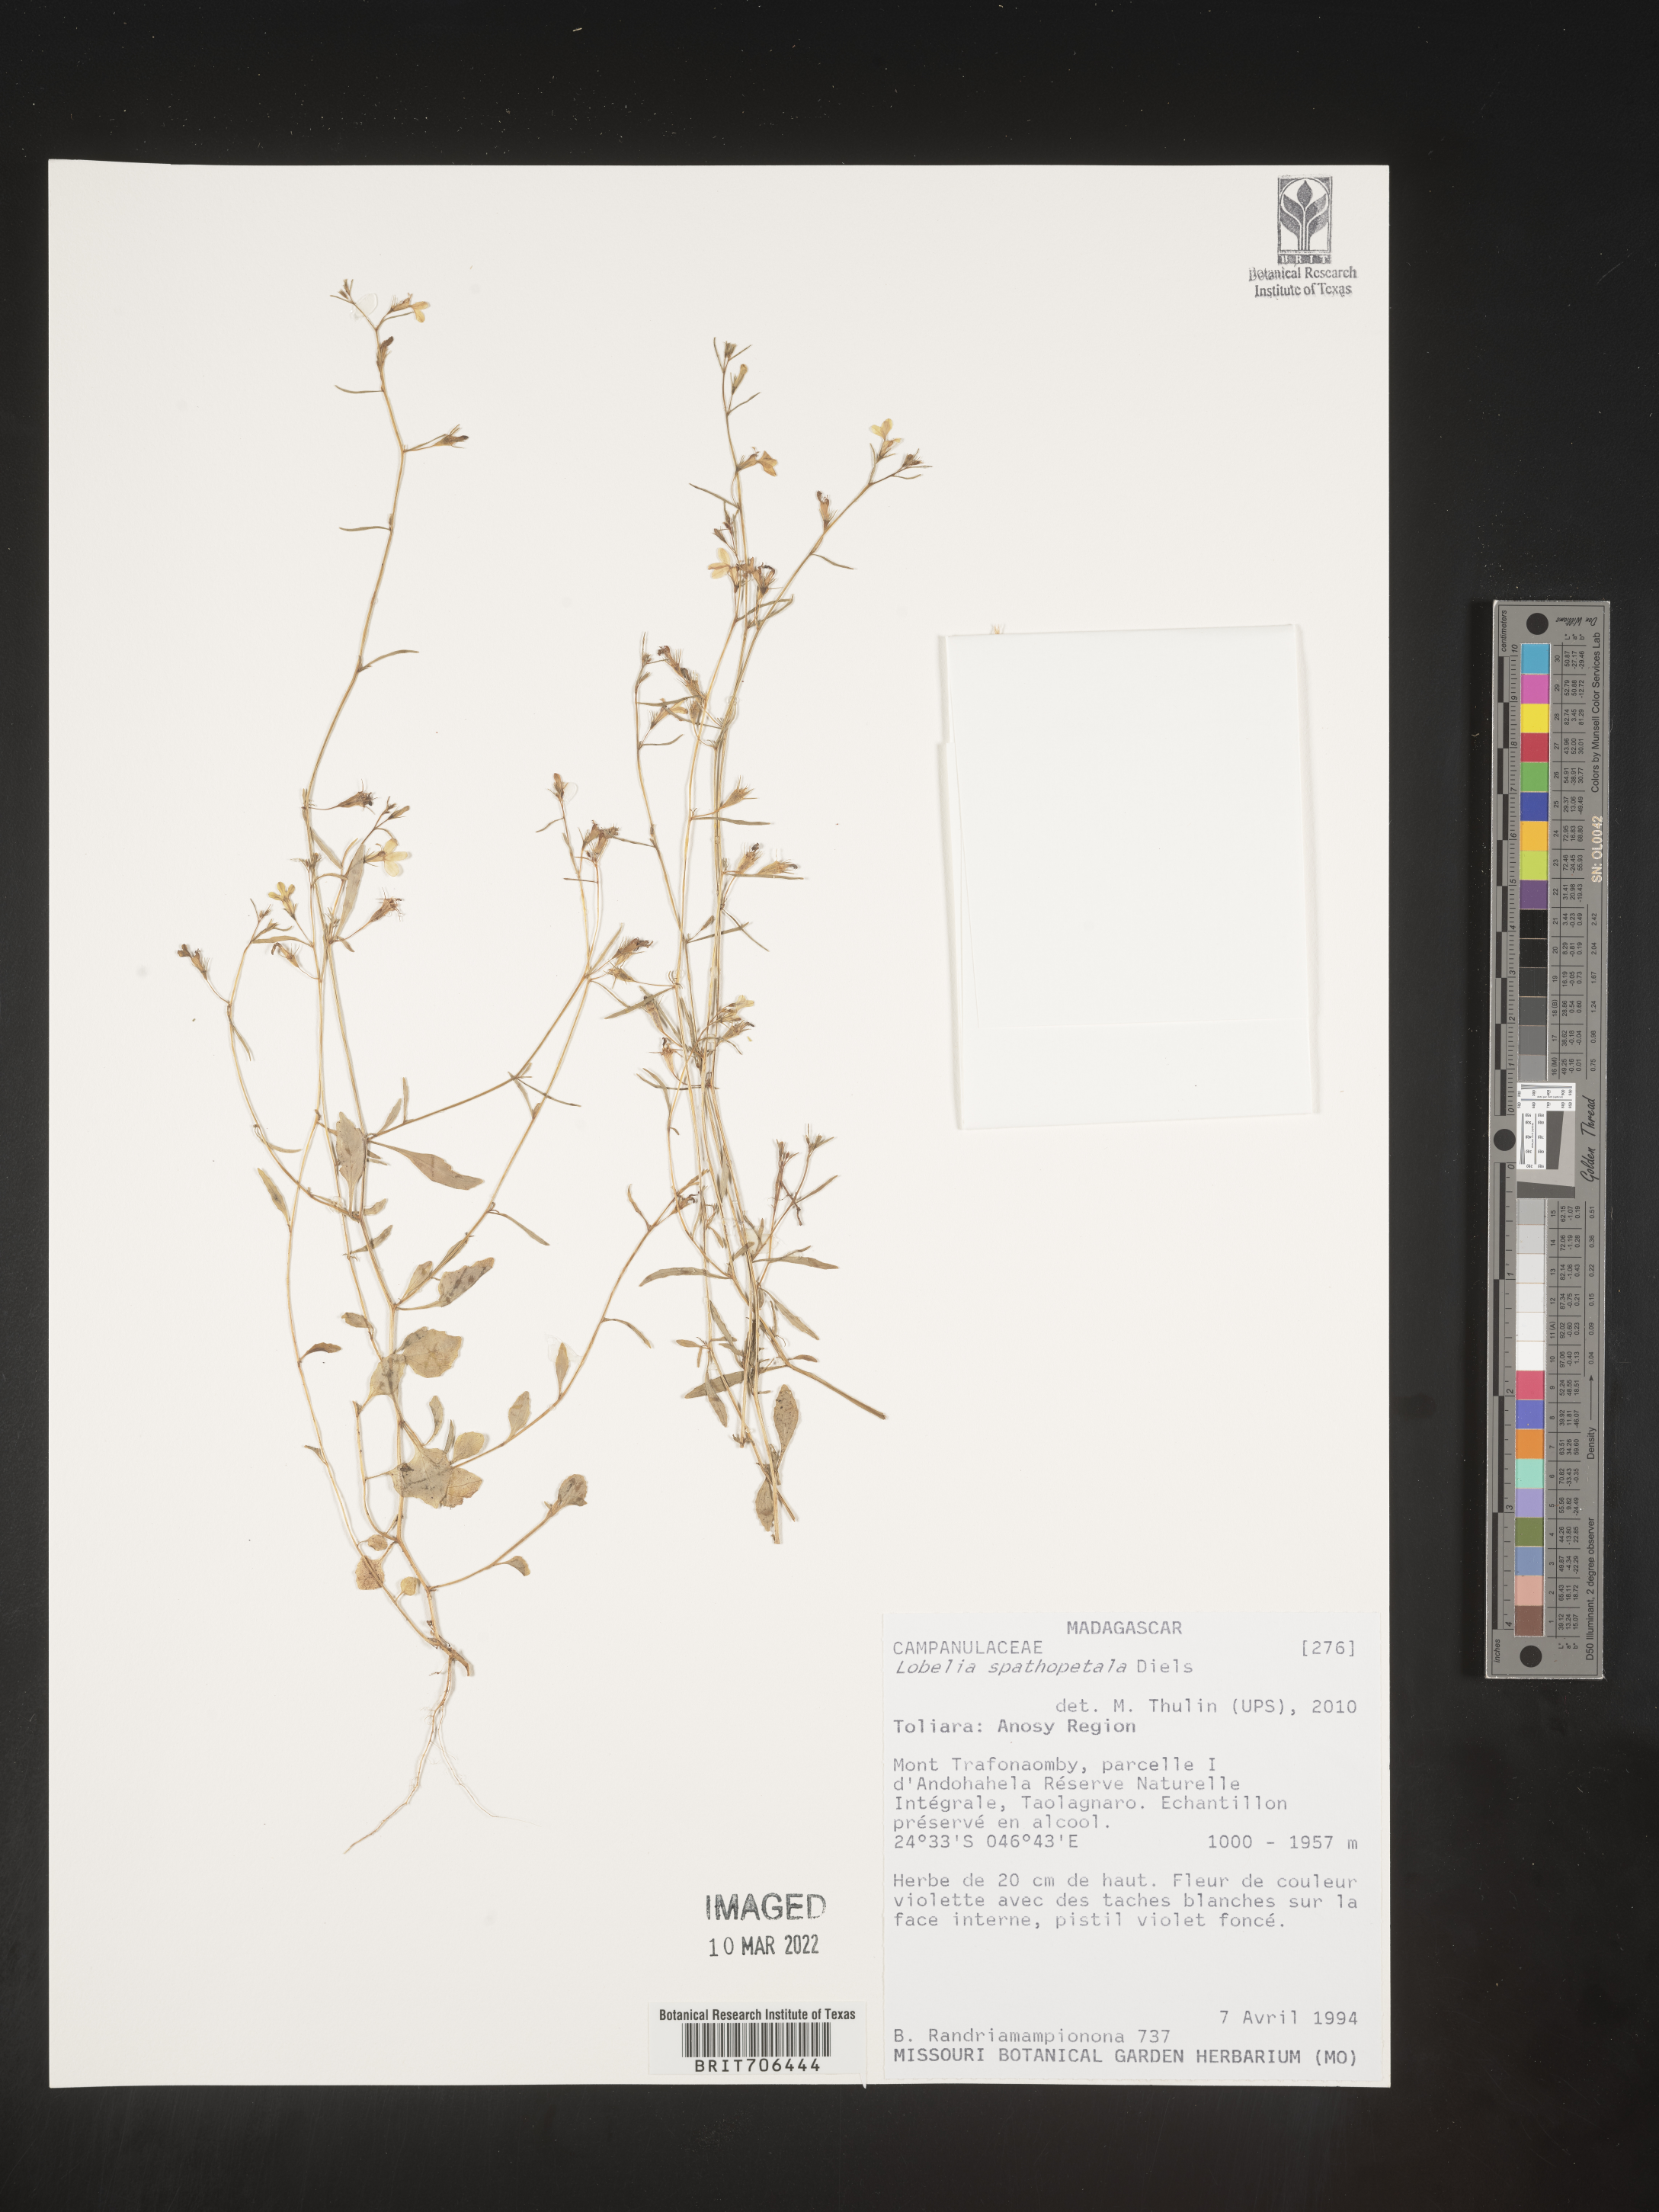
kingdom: Plantae
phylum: Tracheophyta
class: Magnoliopsida
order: Asterales
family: Campanulaceae
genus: Lobelia
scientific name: Lobelia
